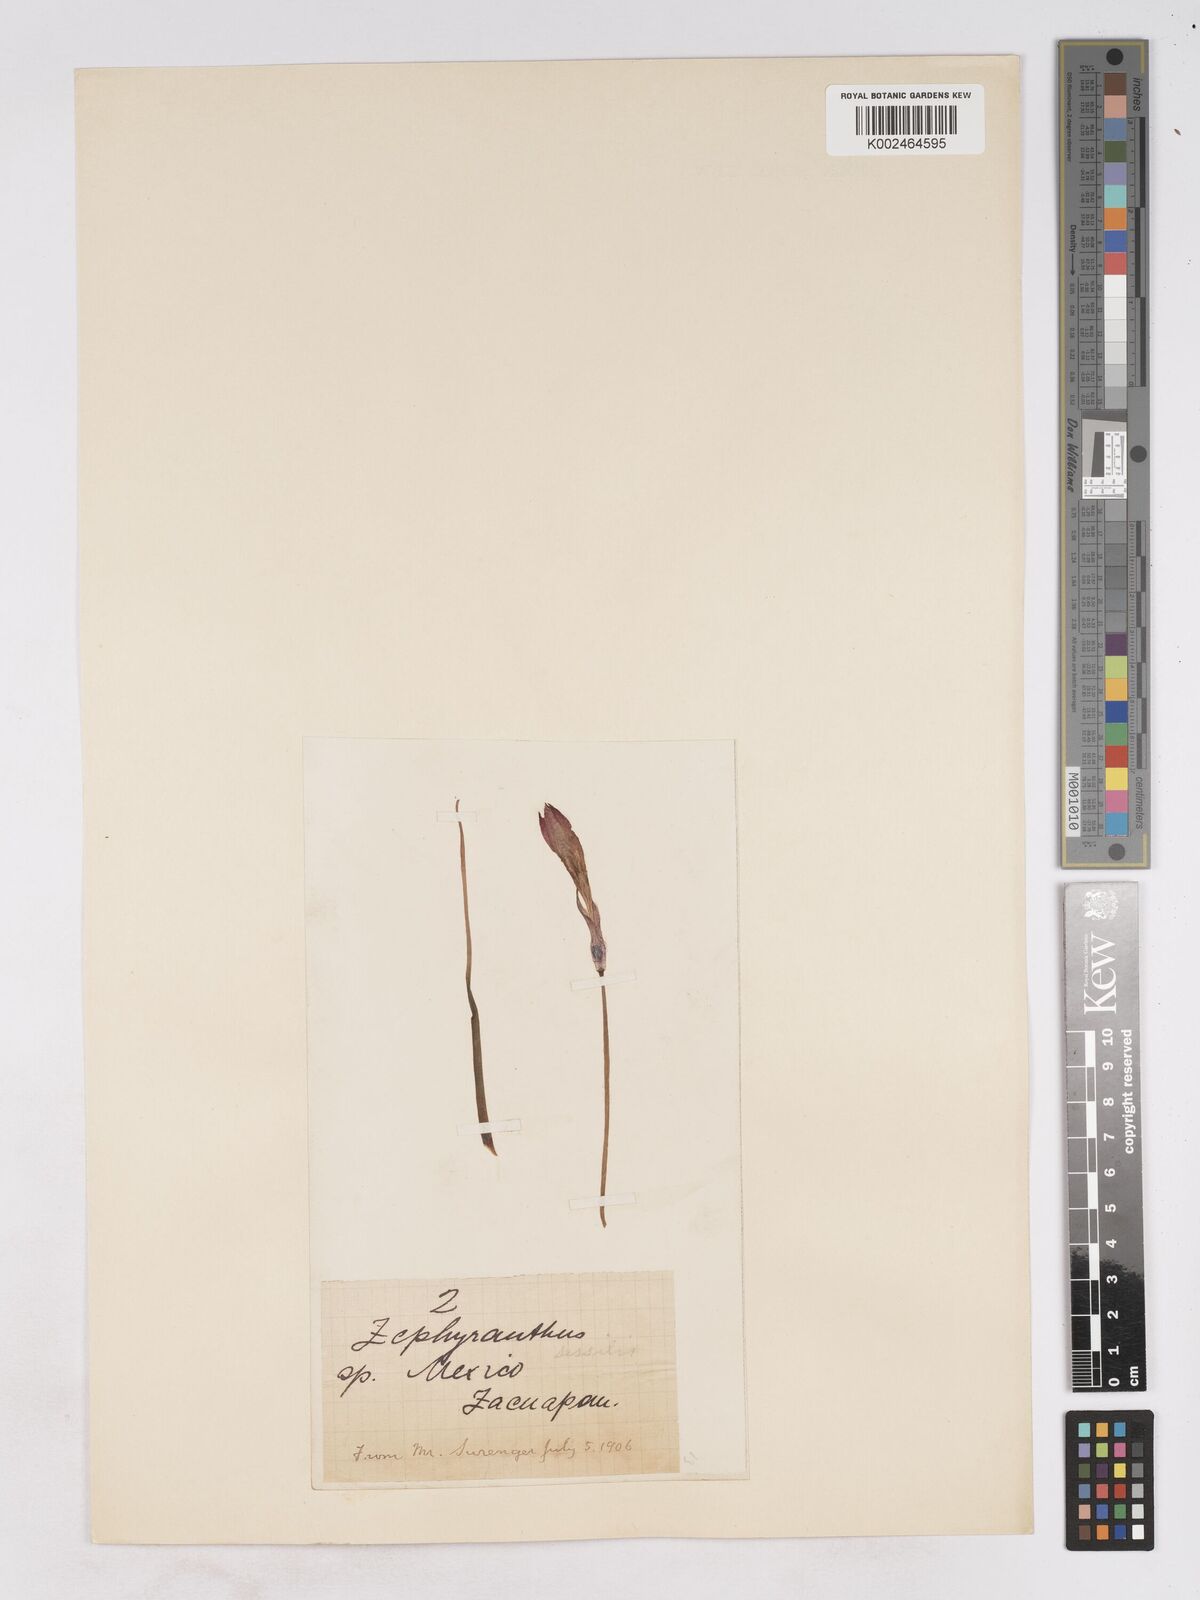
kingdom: Plantae
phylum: Tracheophyta
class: Liliopsida
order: Asparagales
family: Amaryllidaceae
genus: Zephyranthes
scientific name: Zephyranthes minuta
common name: Pink rain lily
